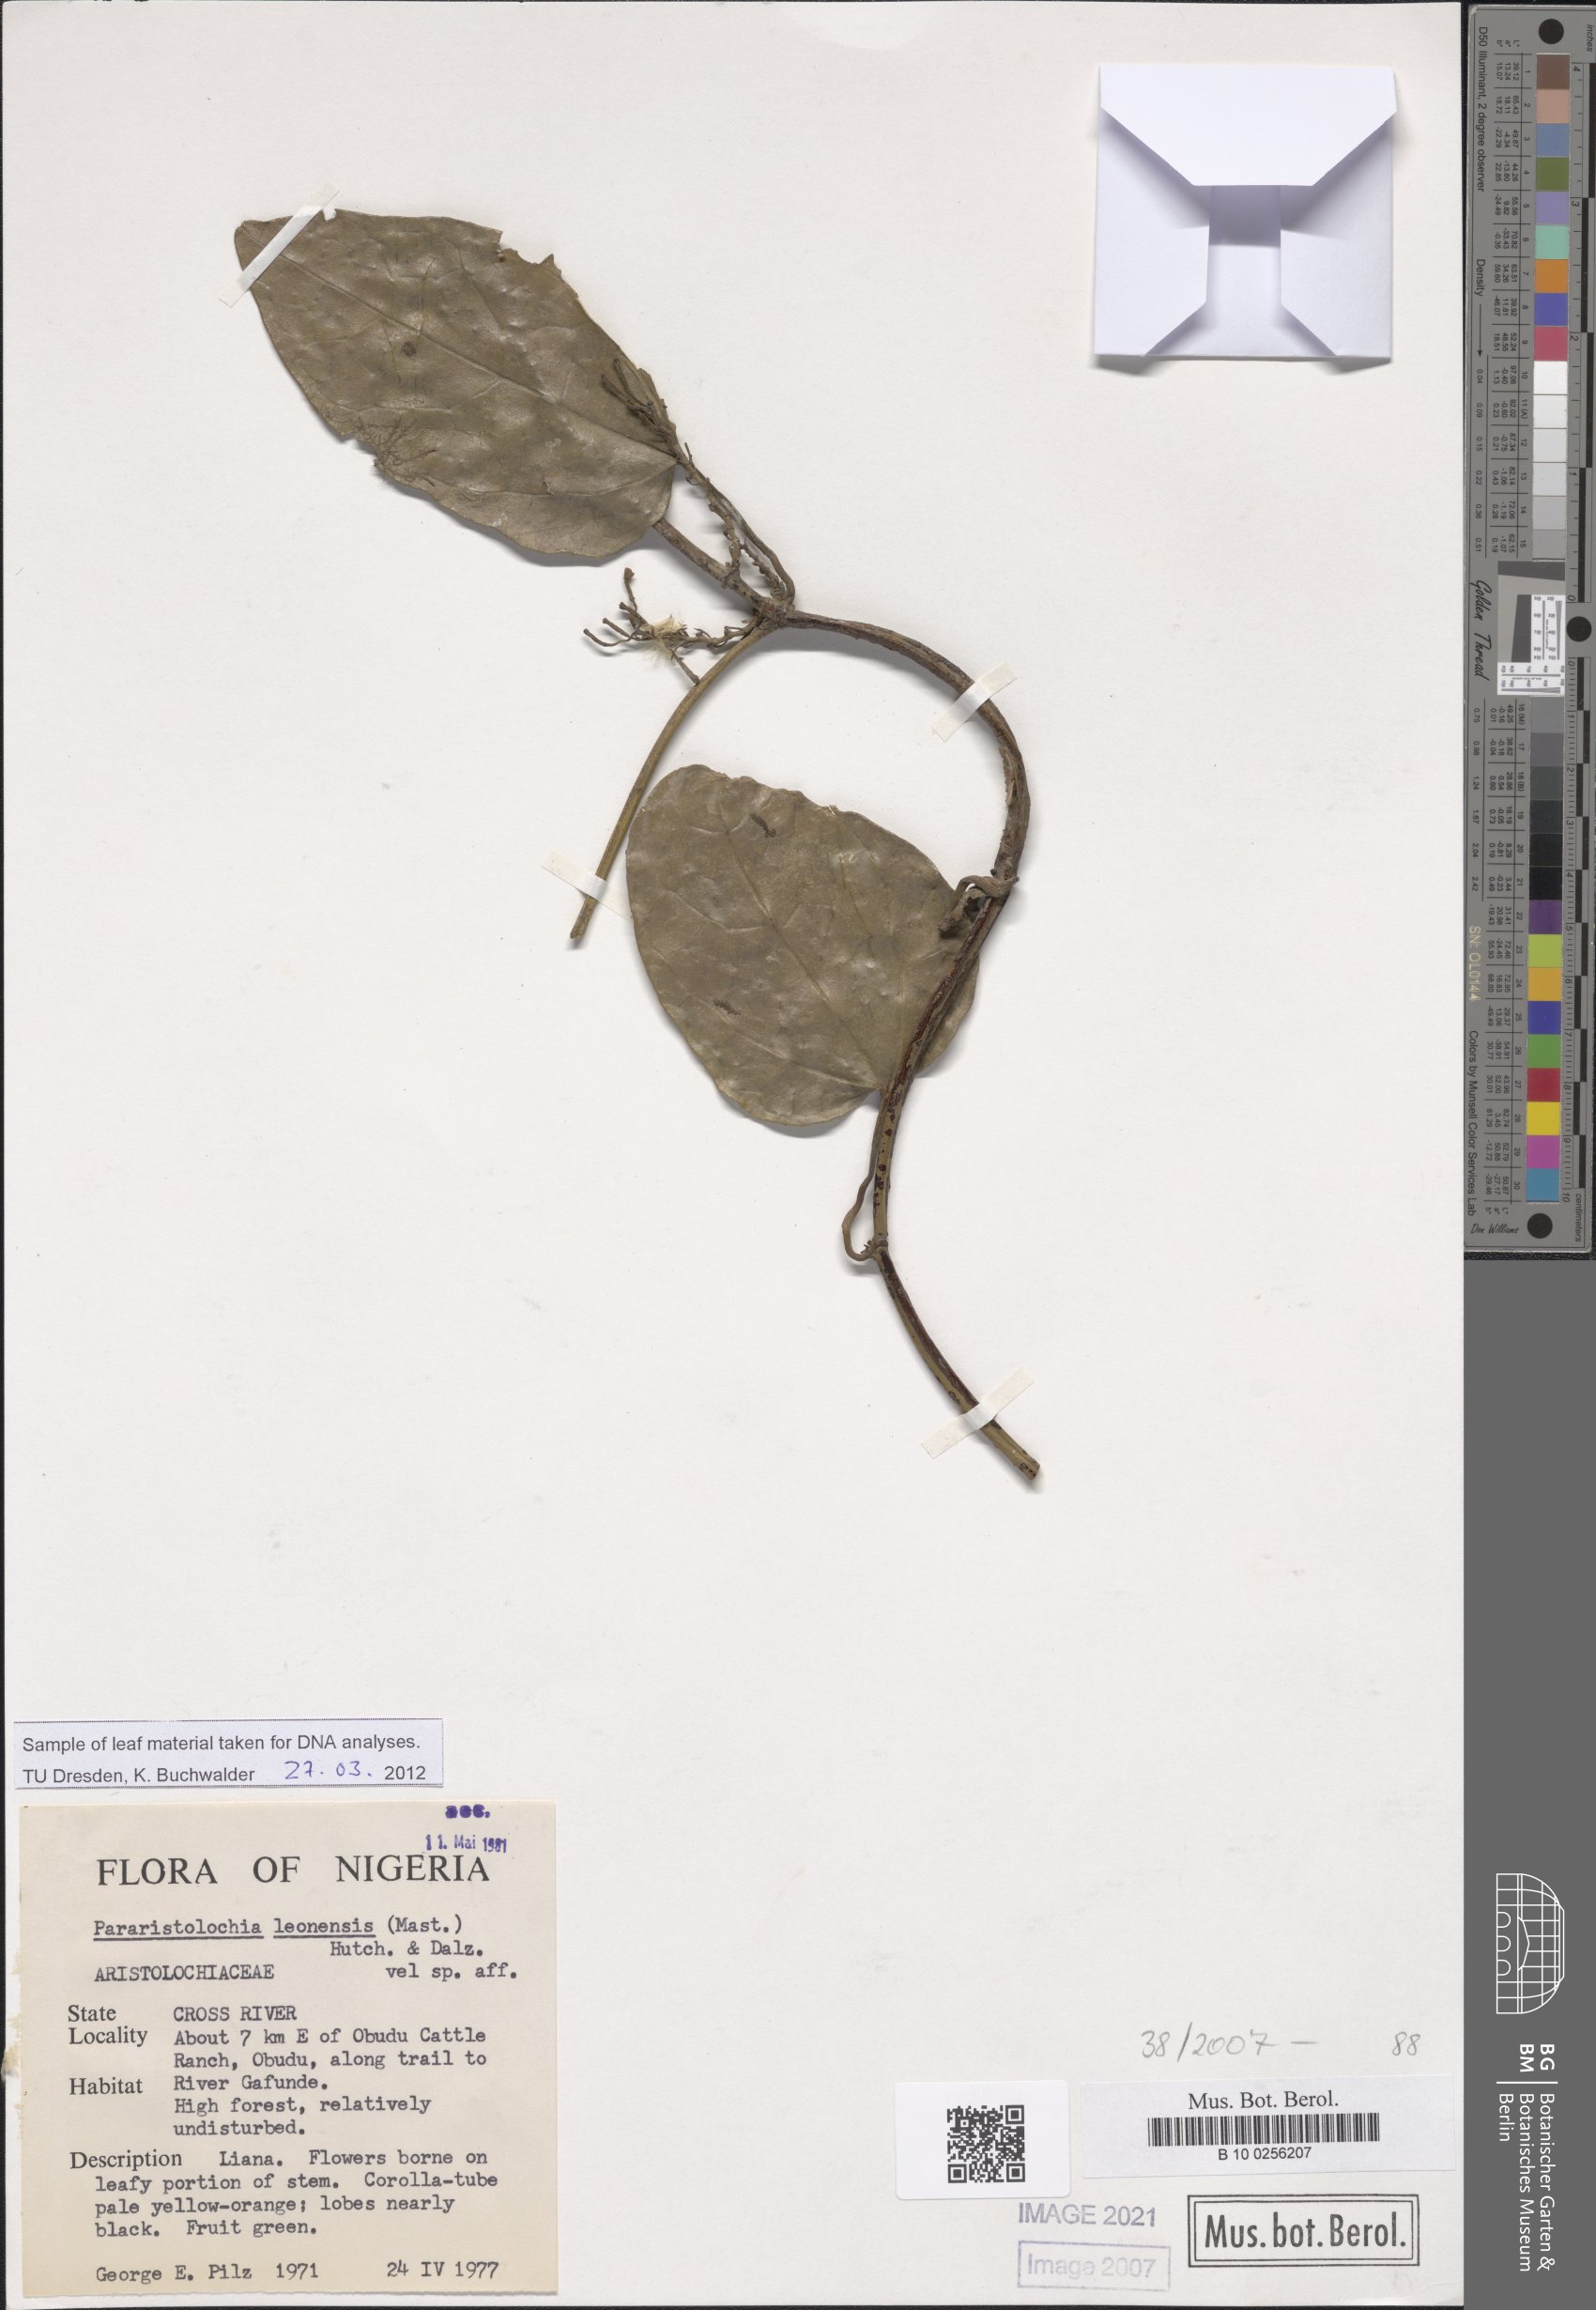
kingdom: Plantae
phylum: Tracheophyta
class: Magnoliopsida
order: Piperales
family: Aristolochiaceae
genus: Aristolochia
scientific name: Aristolochia leonensis
